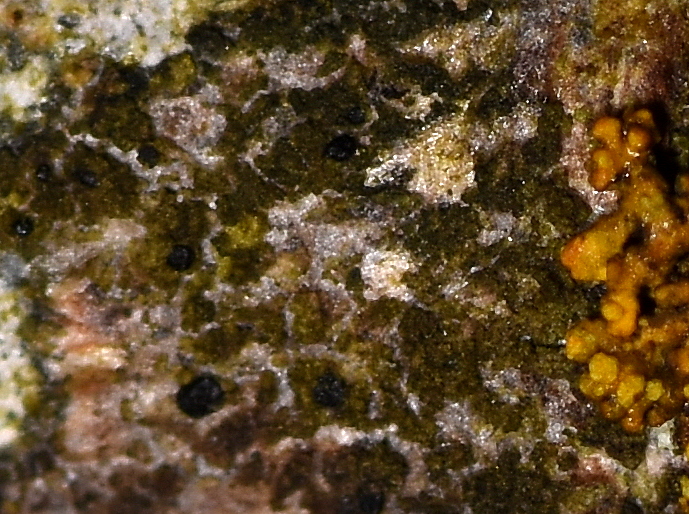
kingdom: Fungi
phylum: Ascomycota
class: Lecanoromycetes
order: Lecanorales
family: Scoliciosporaceae
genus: Scoliciosporum
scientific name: Scoliciosporum chlorococcum
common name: by-snosporelav
